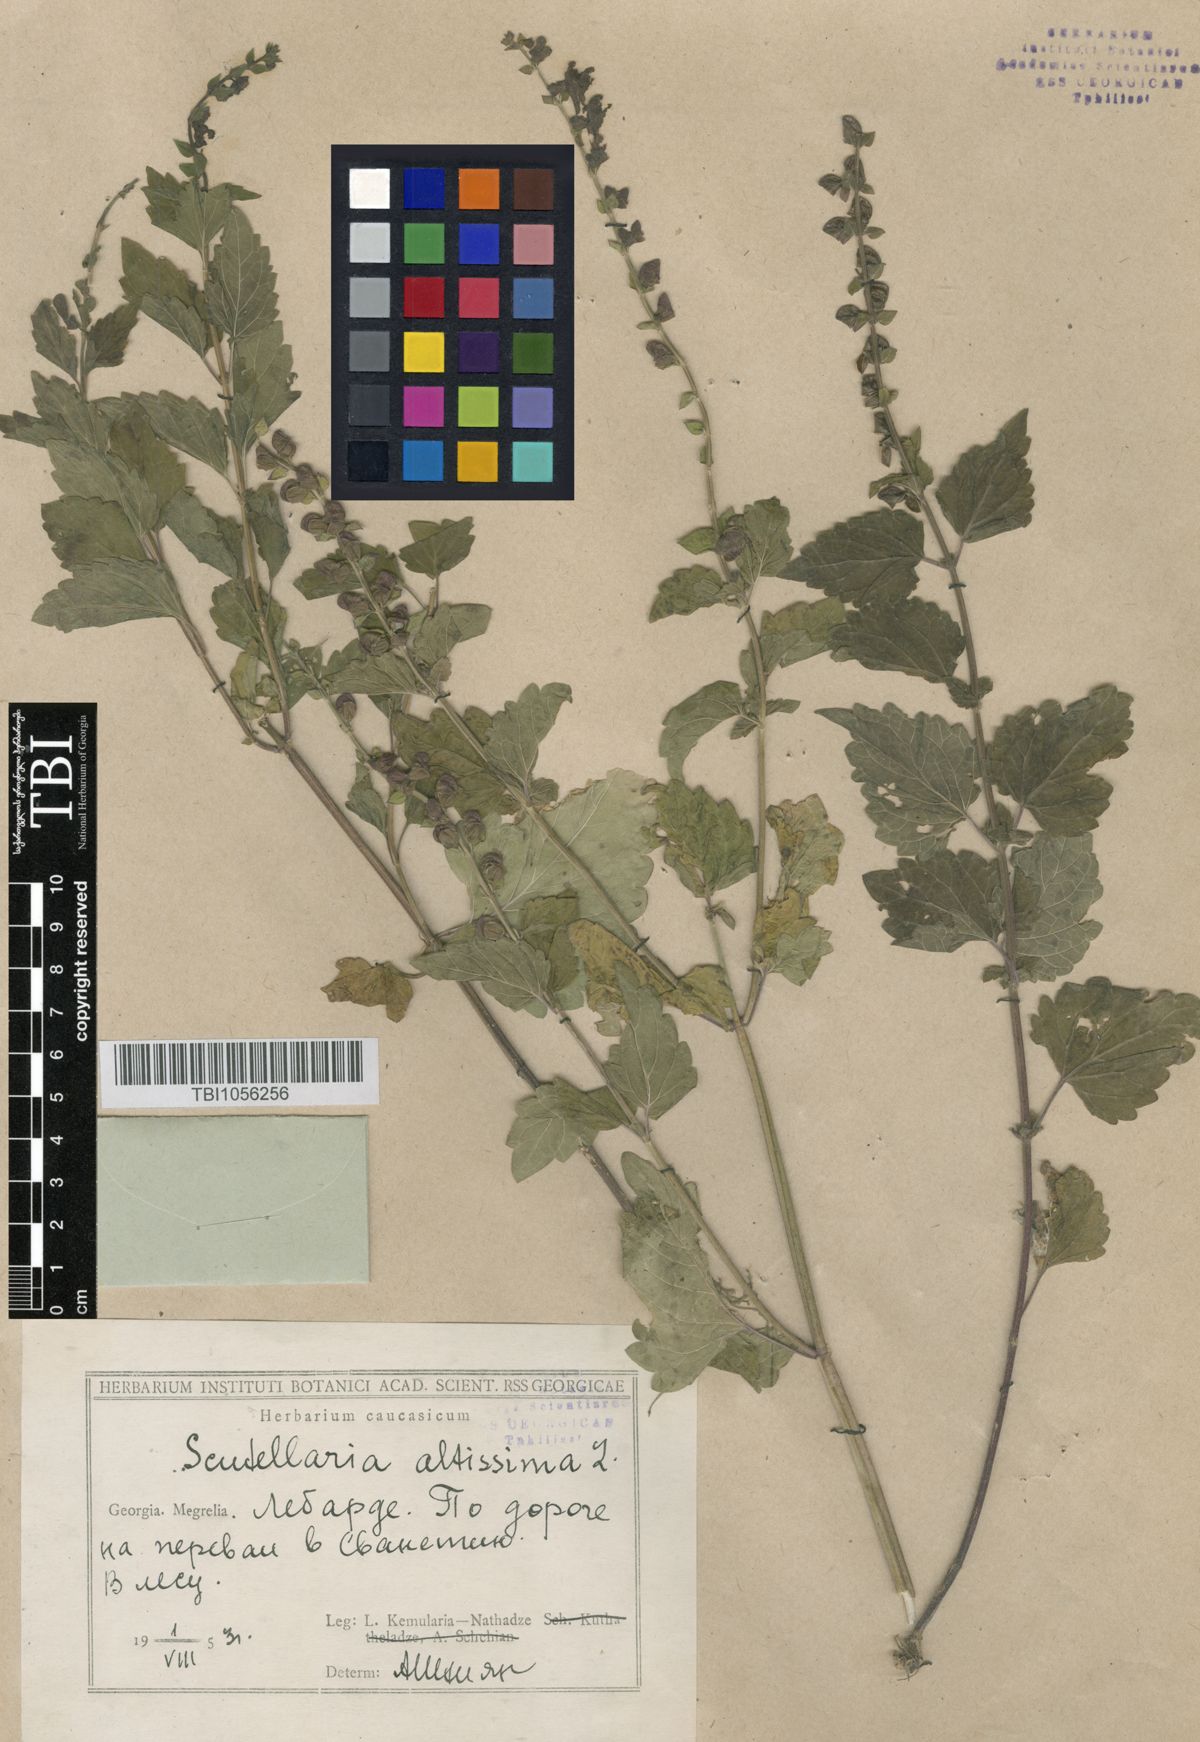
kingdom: Plantae
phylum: Tracheophyta
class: Magnoliopsida
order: Lamiales
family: Lamiaceae
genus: Scutellaria
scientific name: Scutellaria altissima
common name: Somerset skullcap
